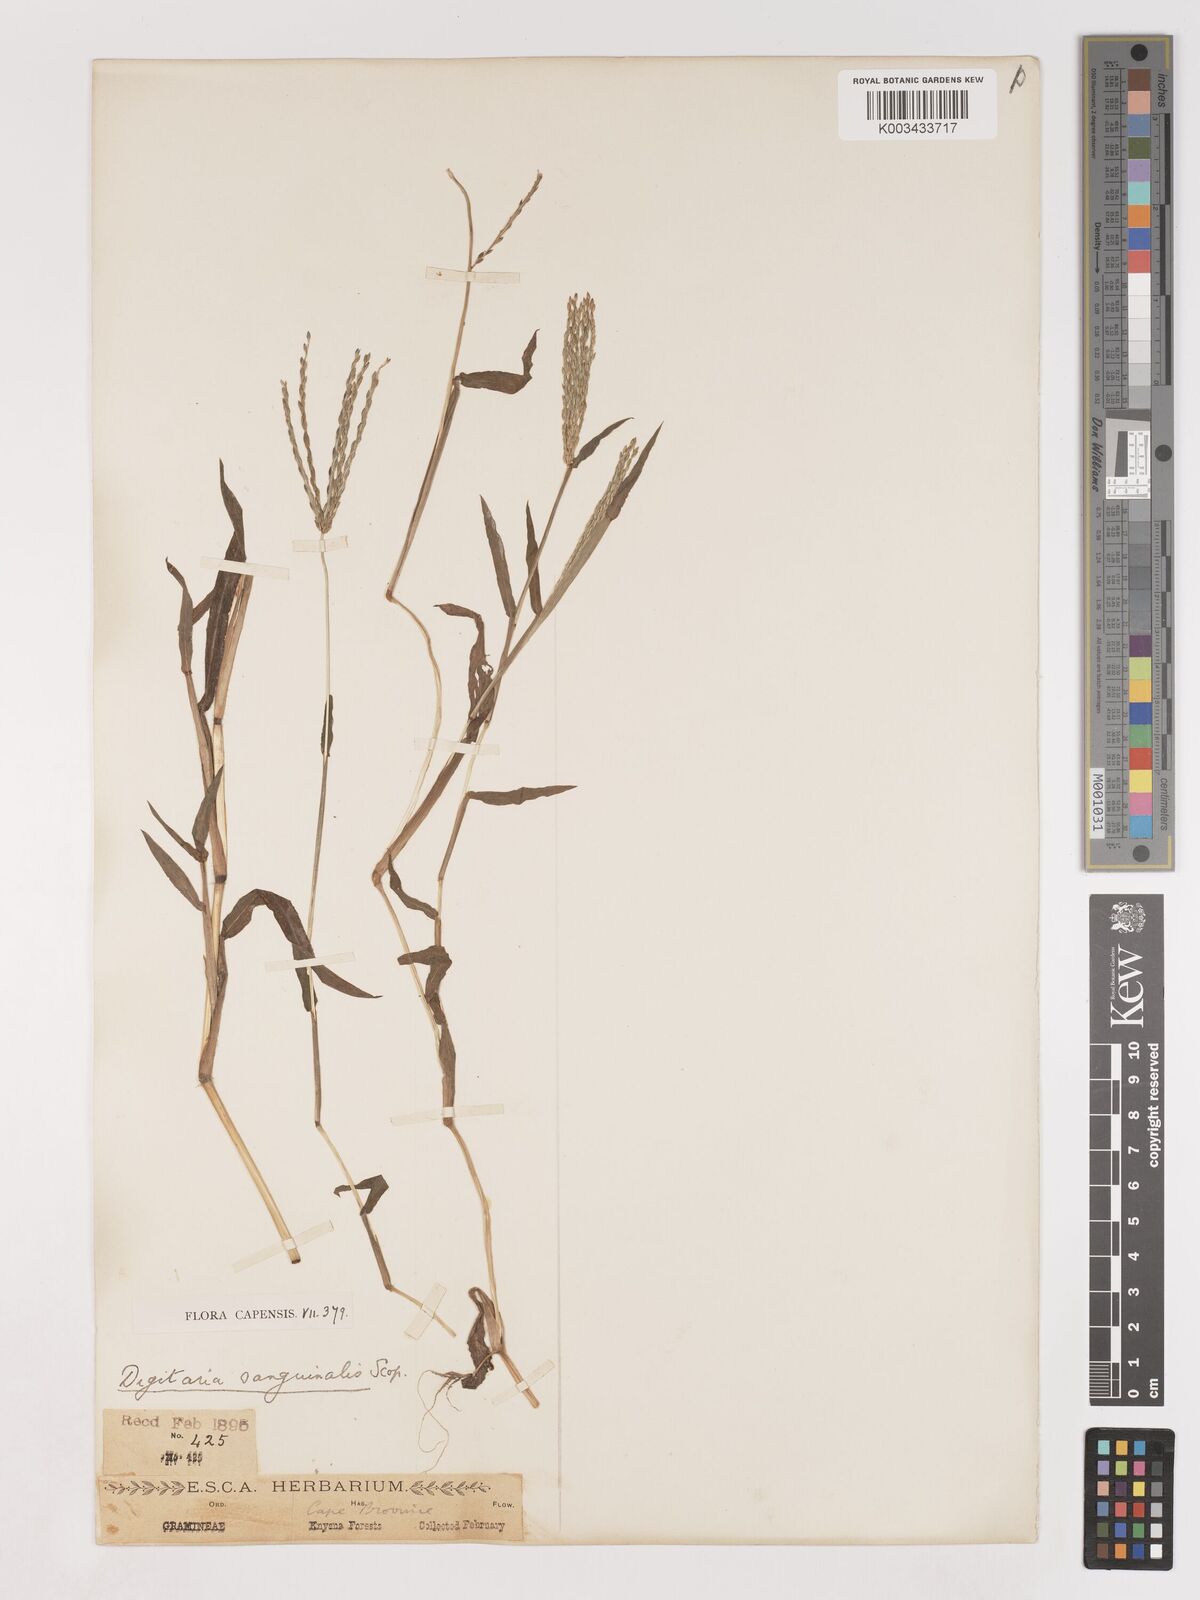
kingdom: Plantae
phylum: Tracheophyta
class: Liliopsida
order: Poales
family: Poaceae
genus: Digitaria
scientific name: Digitaria sanguinalis
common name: Hairy crabgrass
